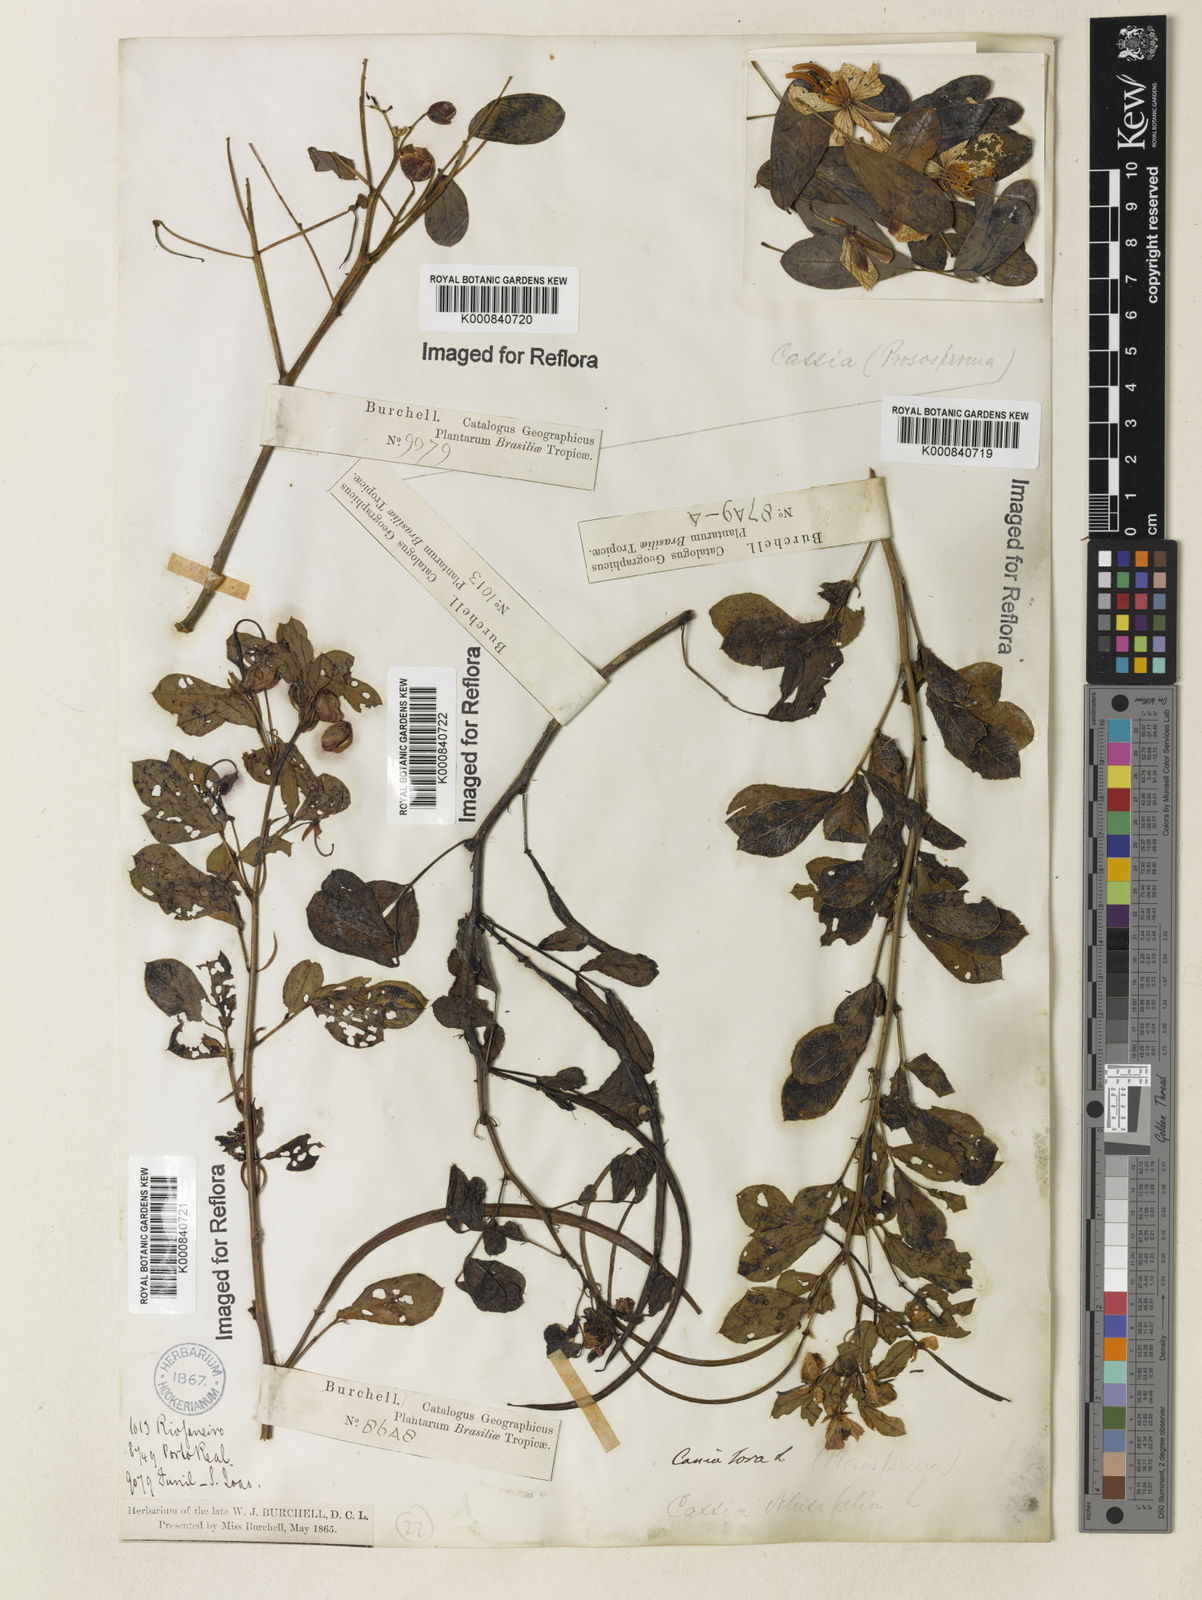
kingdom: Plantae
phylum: Tracheophyta
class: Magnoliopsida
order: Fabales
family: Fabaceae
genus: Senna
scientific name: Senna obtusifolia
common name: Java-bean
